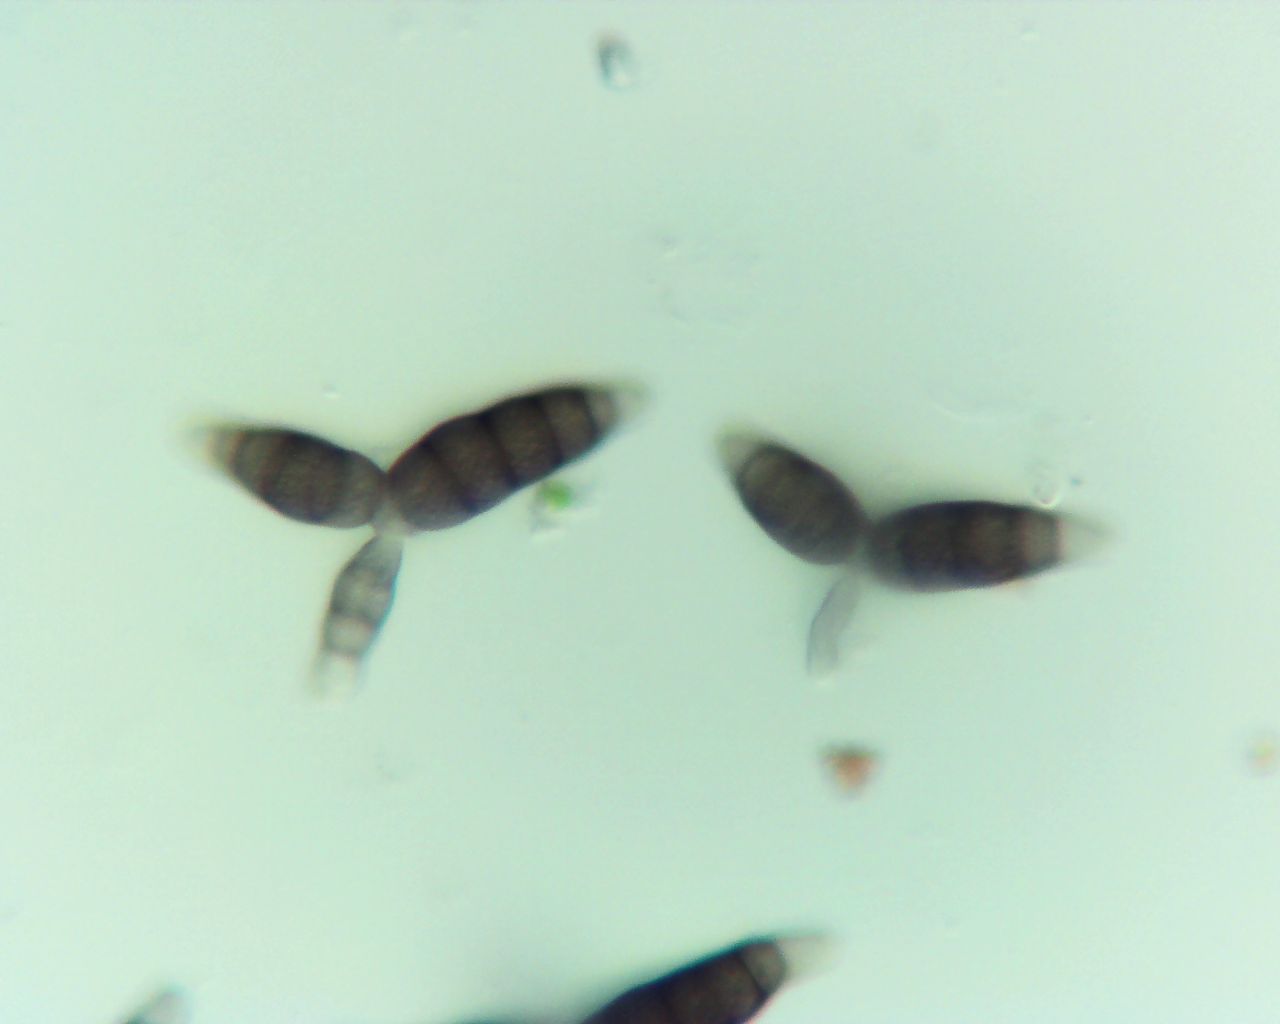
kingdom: Fungi
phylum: Ascomycota
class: Dothideomycetes
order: Pleosporales
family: Pleomassariaceae
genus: Pleomassaria
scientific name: Pleomassaria siparia
